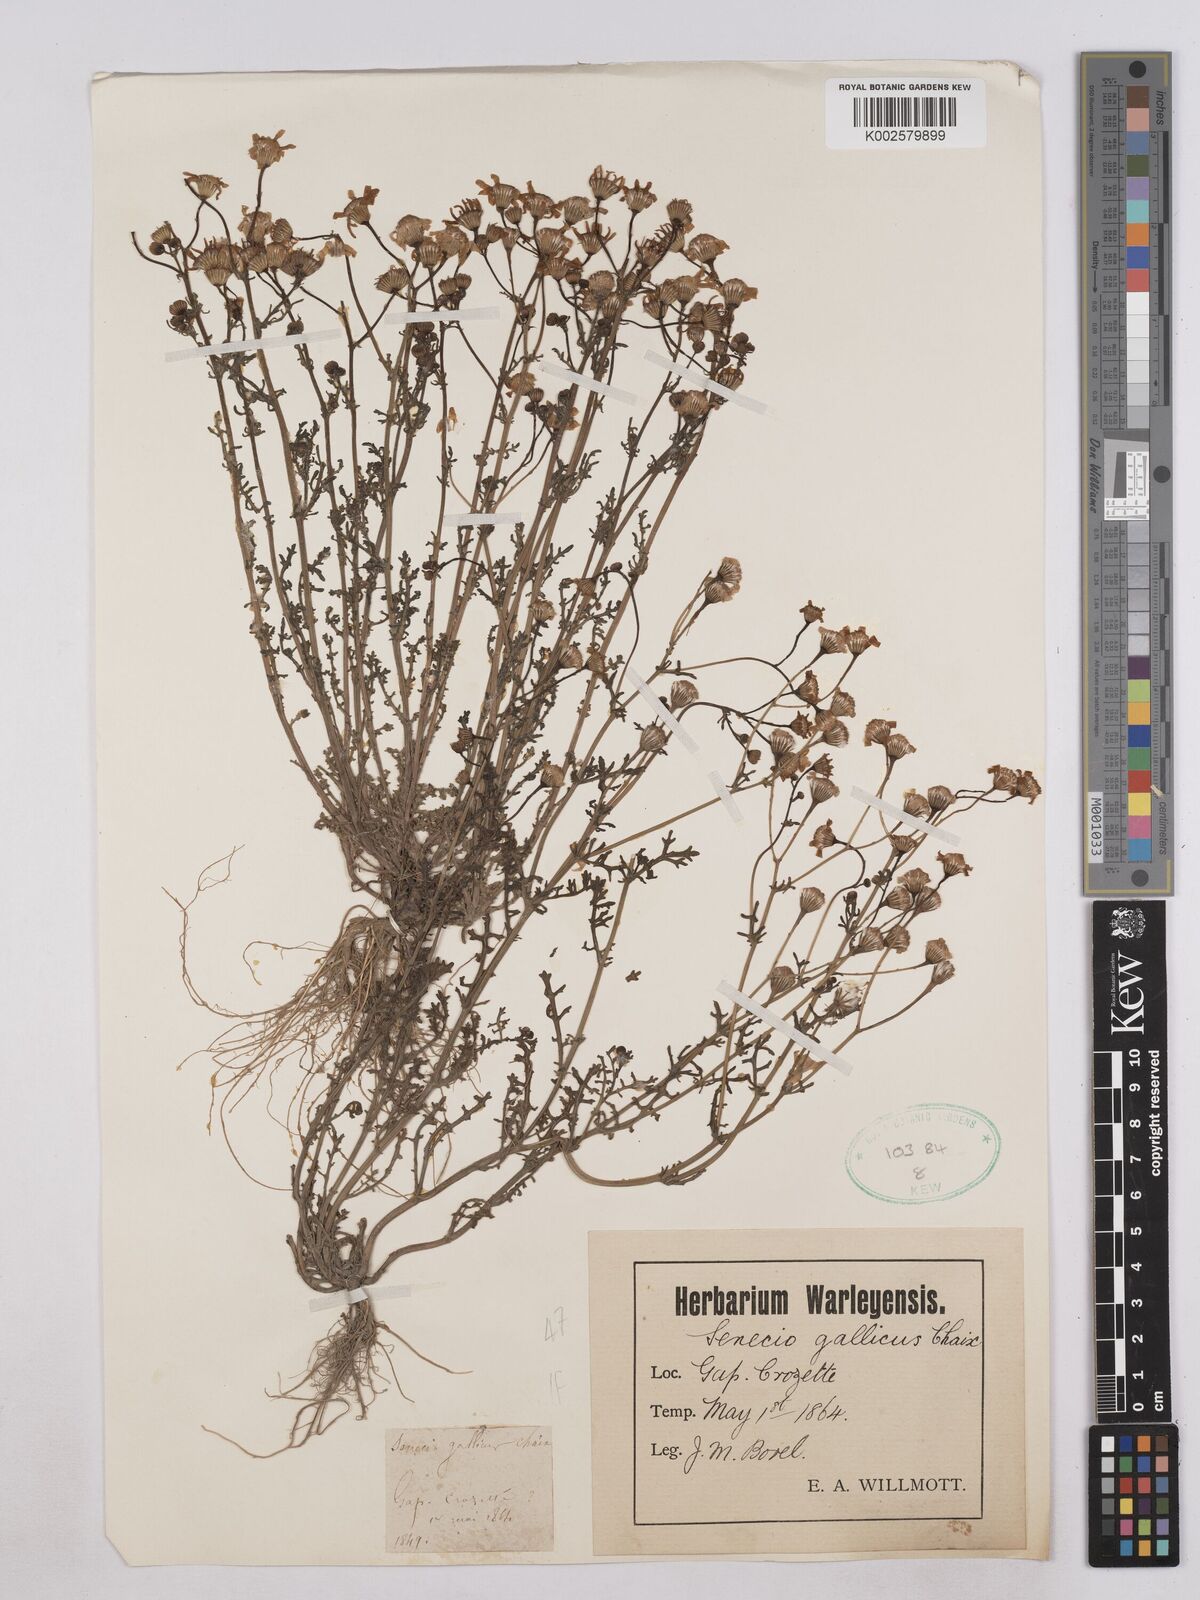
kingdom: Plantae
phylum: Tracheophyta
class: Magnoliopsida
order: Asterales
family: Asteraceae
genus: Senecio
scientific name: Senecio gallicus
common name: French groundsel
